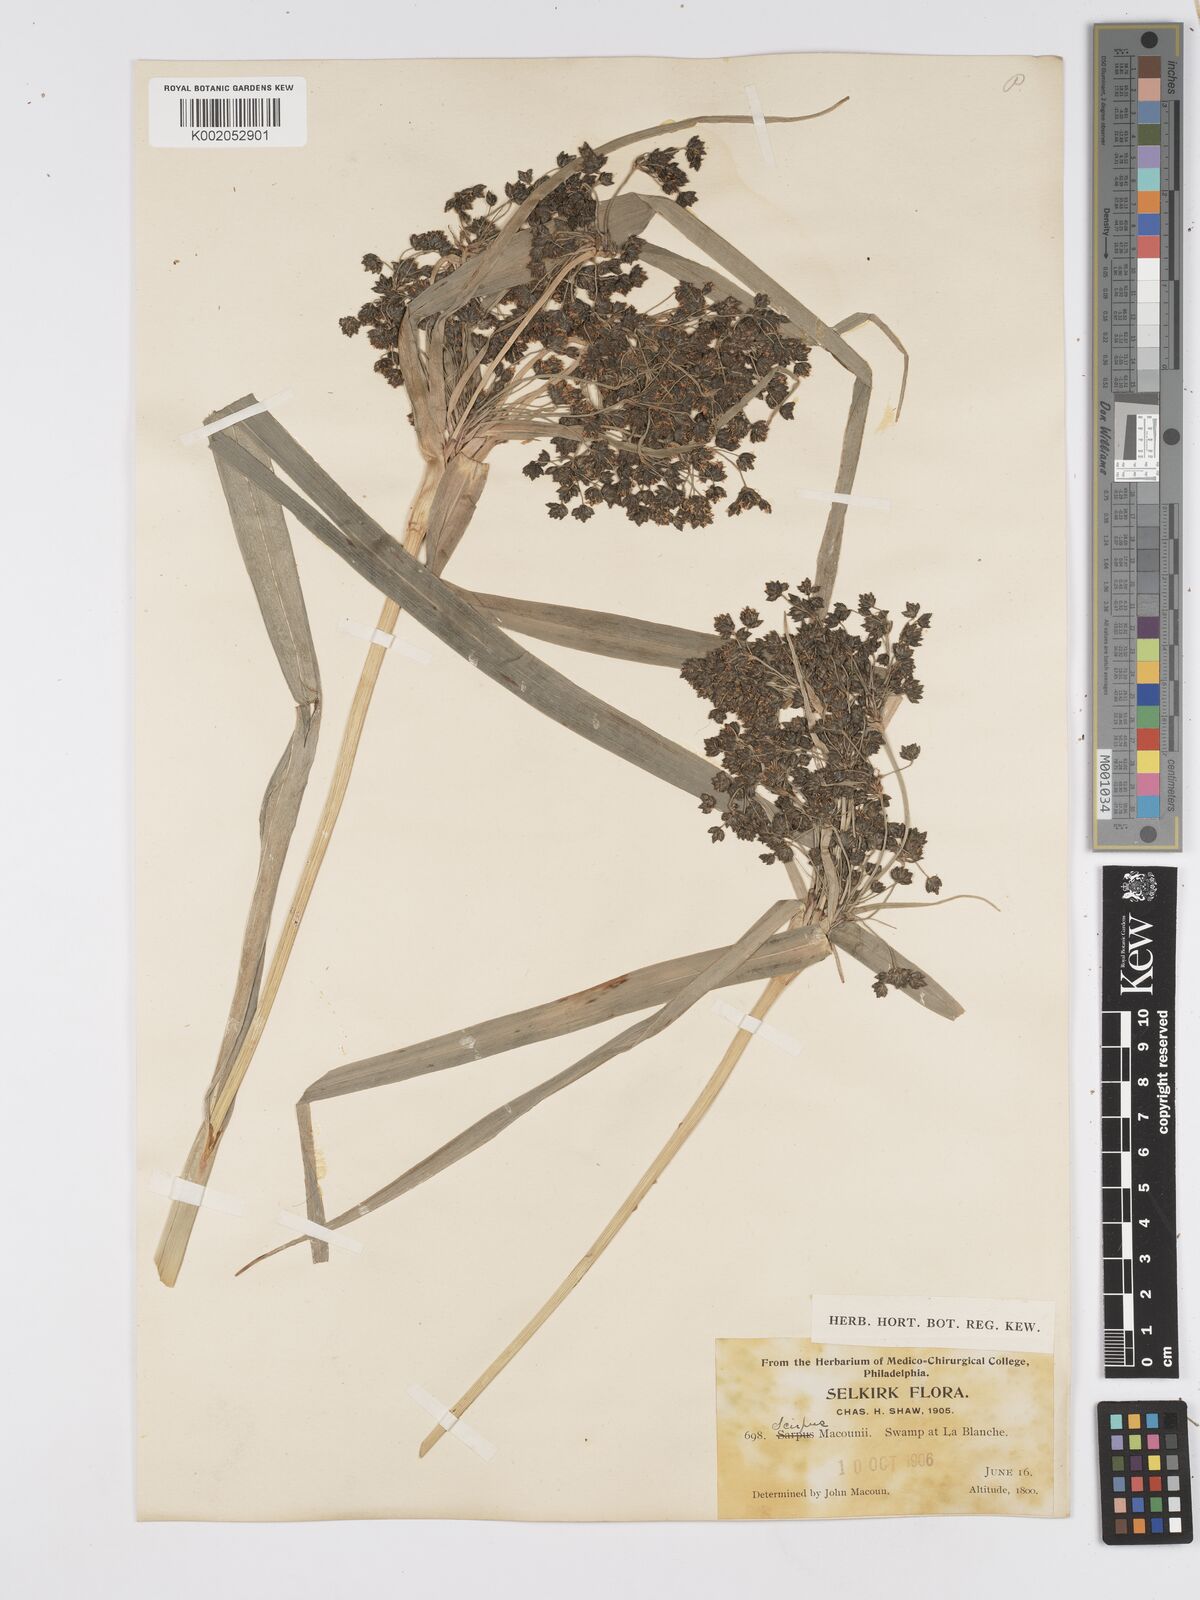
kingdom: Plantae
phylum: Tracheophyta
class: Liliopsida
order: Poales
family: Cyperaceae
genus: Scirpus
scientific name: Scirpus sylvaticus
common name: Wood club-rush
